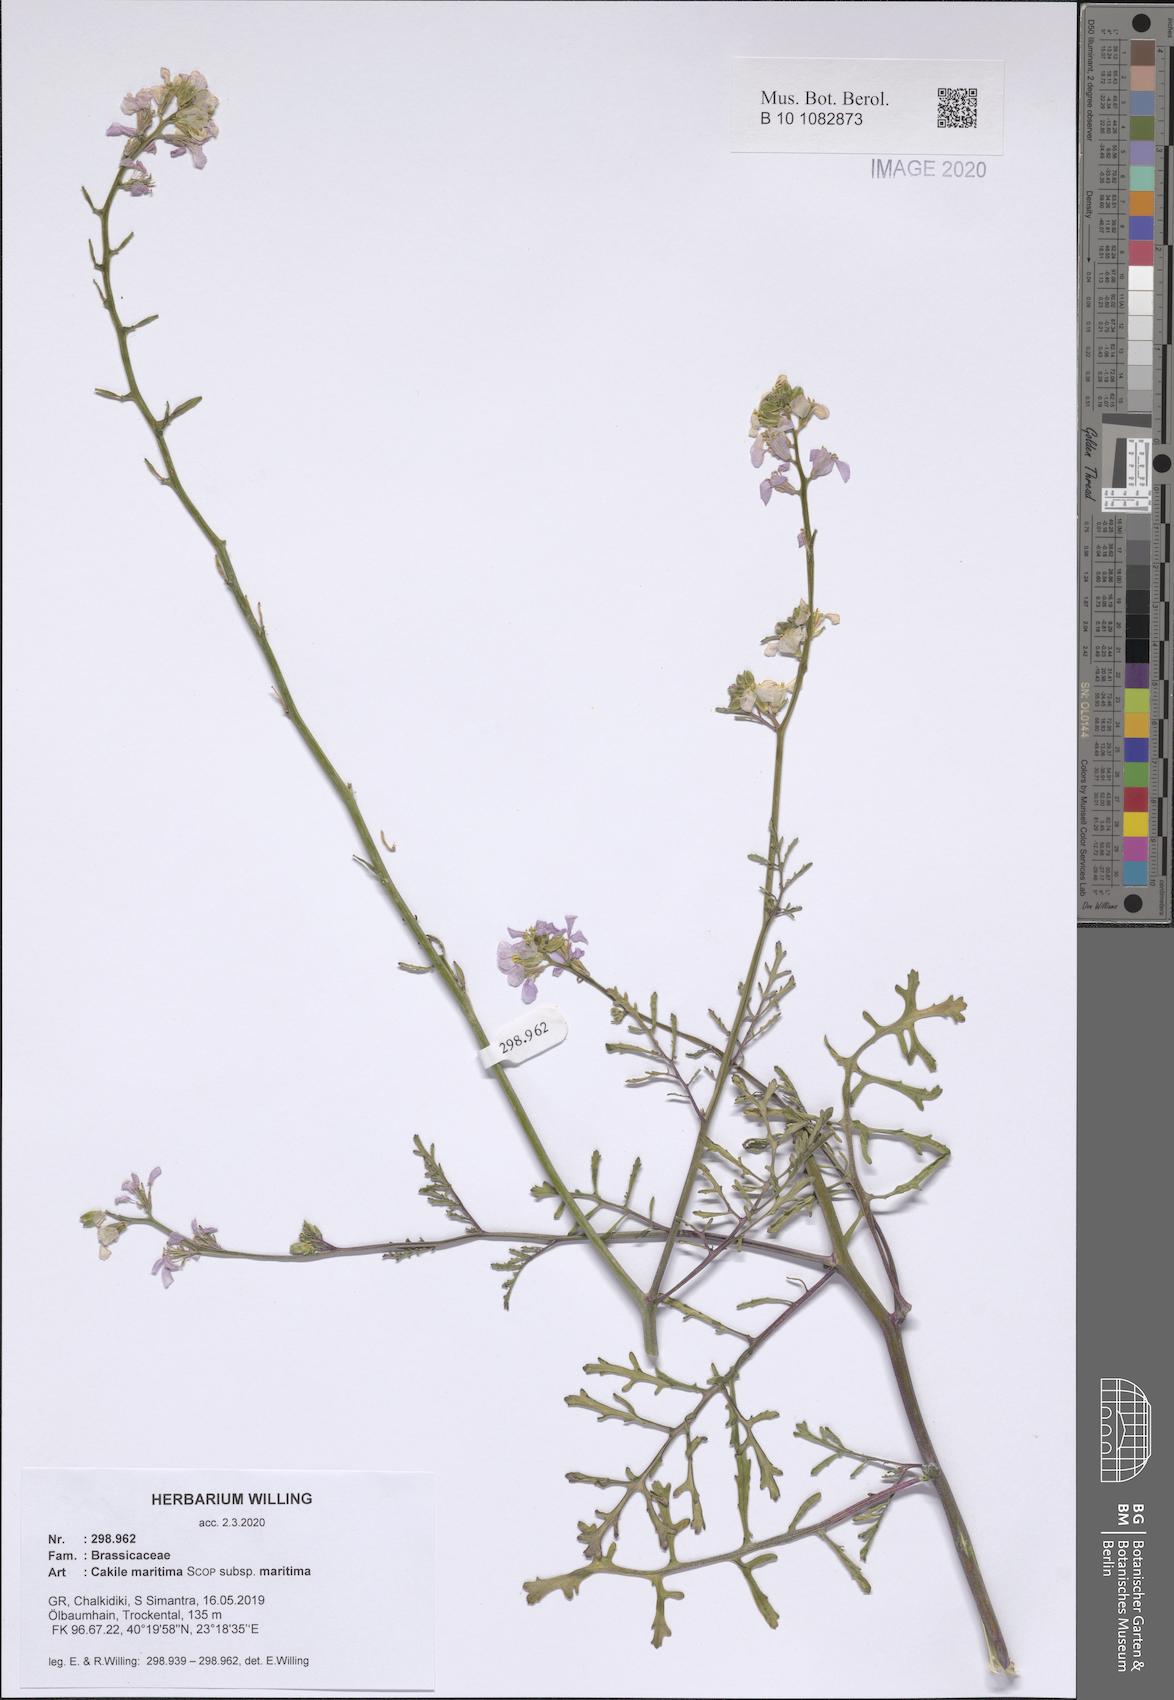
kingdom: Plantae
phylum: Tracheophyta
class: Magnoliopsida
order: Brassicales
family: Brassicaceae
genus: Cakile
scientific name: Cakile maritima
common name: Sea rocket
